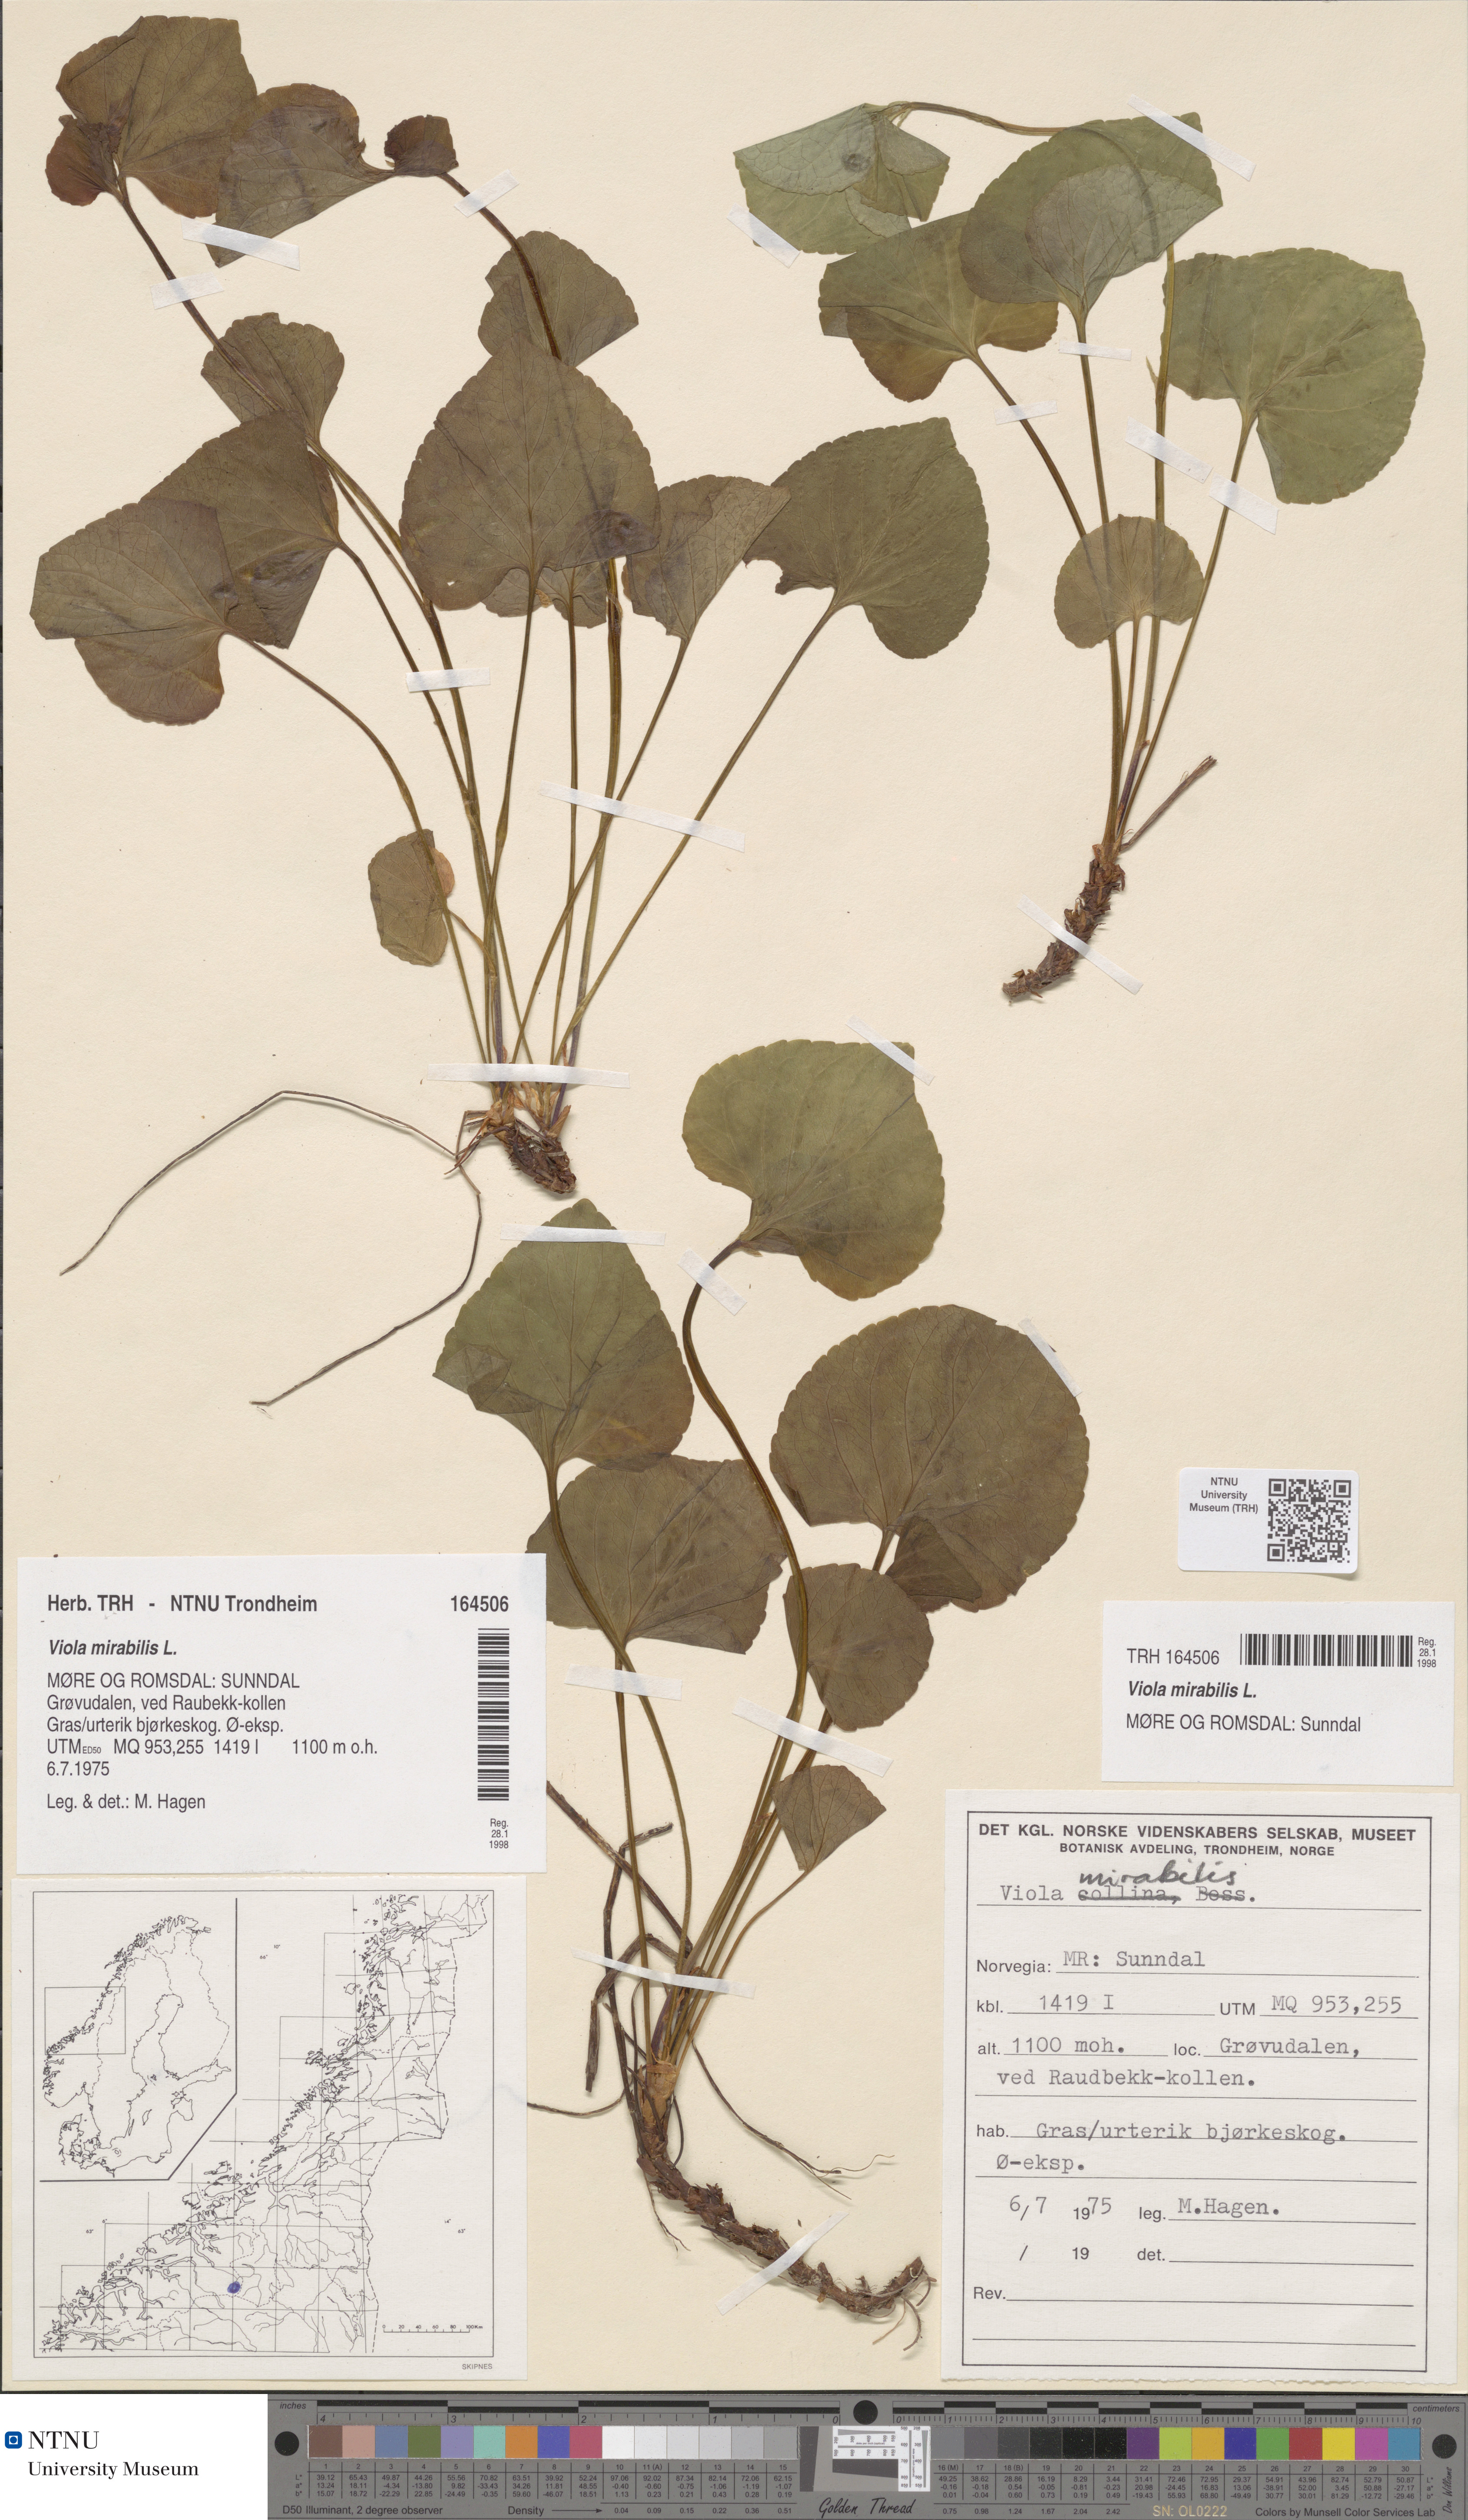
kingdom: Plantae
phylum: Tracheophyta
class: Magnoliopsida
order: Malpighiales
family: Violaceae
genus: Viola
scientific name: Viola mirabilis
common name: Wonder violet
